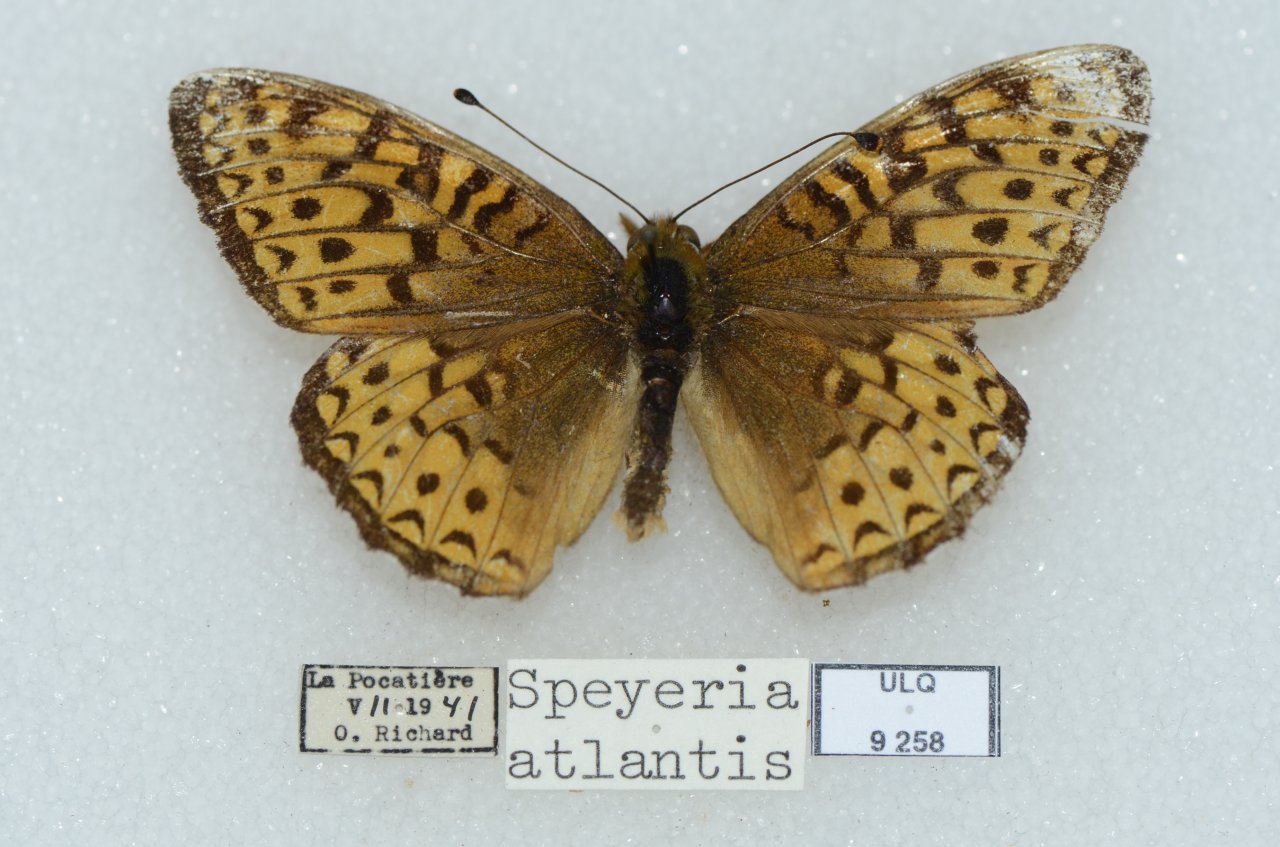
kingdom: Animalia
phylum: Arthropoda
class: Insecta
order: Lepidoptera
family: Nymphalidae
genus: Speyeria
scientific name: Speyeria atlantis
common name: Atlantis Fritillary
